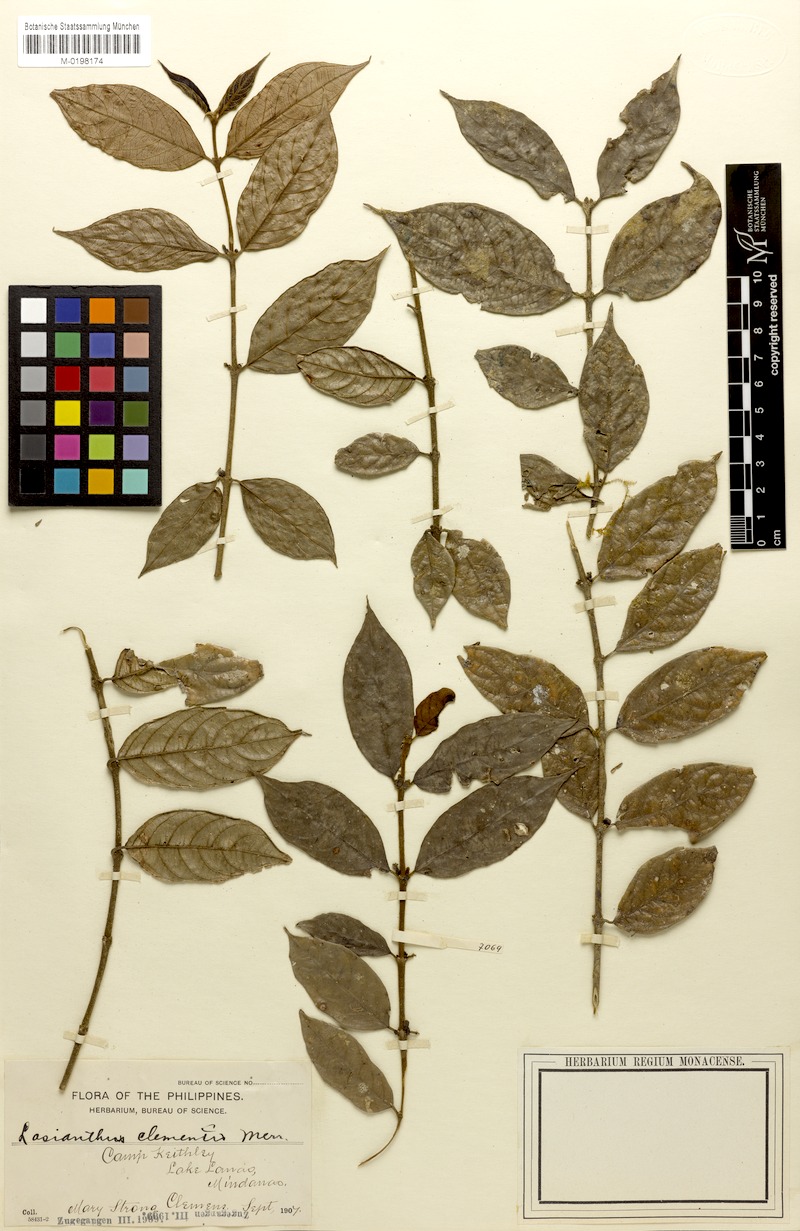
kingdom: Plantae
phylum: Tracheophyta
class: Magnoliopsida
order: Gentianales
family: Rubiaceae
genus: Lasianthus
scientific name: Lasianthus clementis
